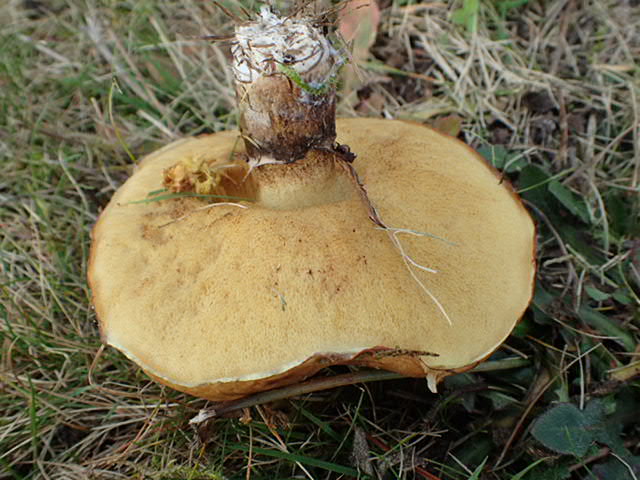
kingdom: Fungi
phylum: Basidiomycota
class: Agaricomycetes
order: Boletales
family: Suillaceae
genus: Suillus
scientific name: Suillus luteus
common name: brungul slimrørhat
